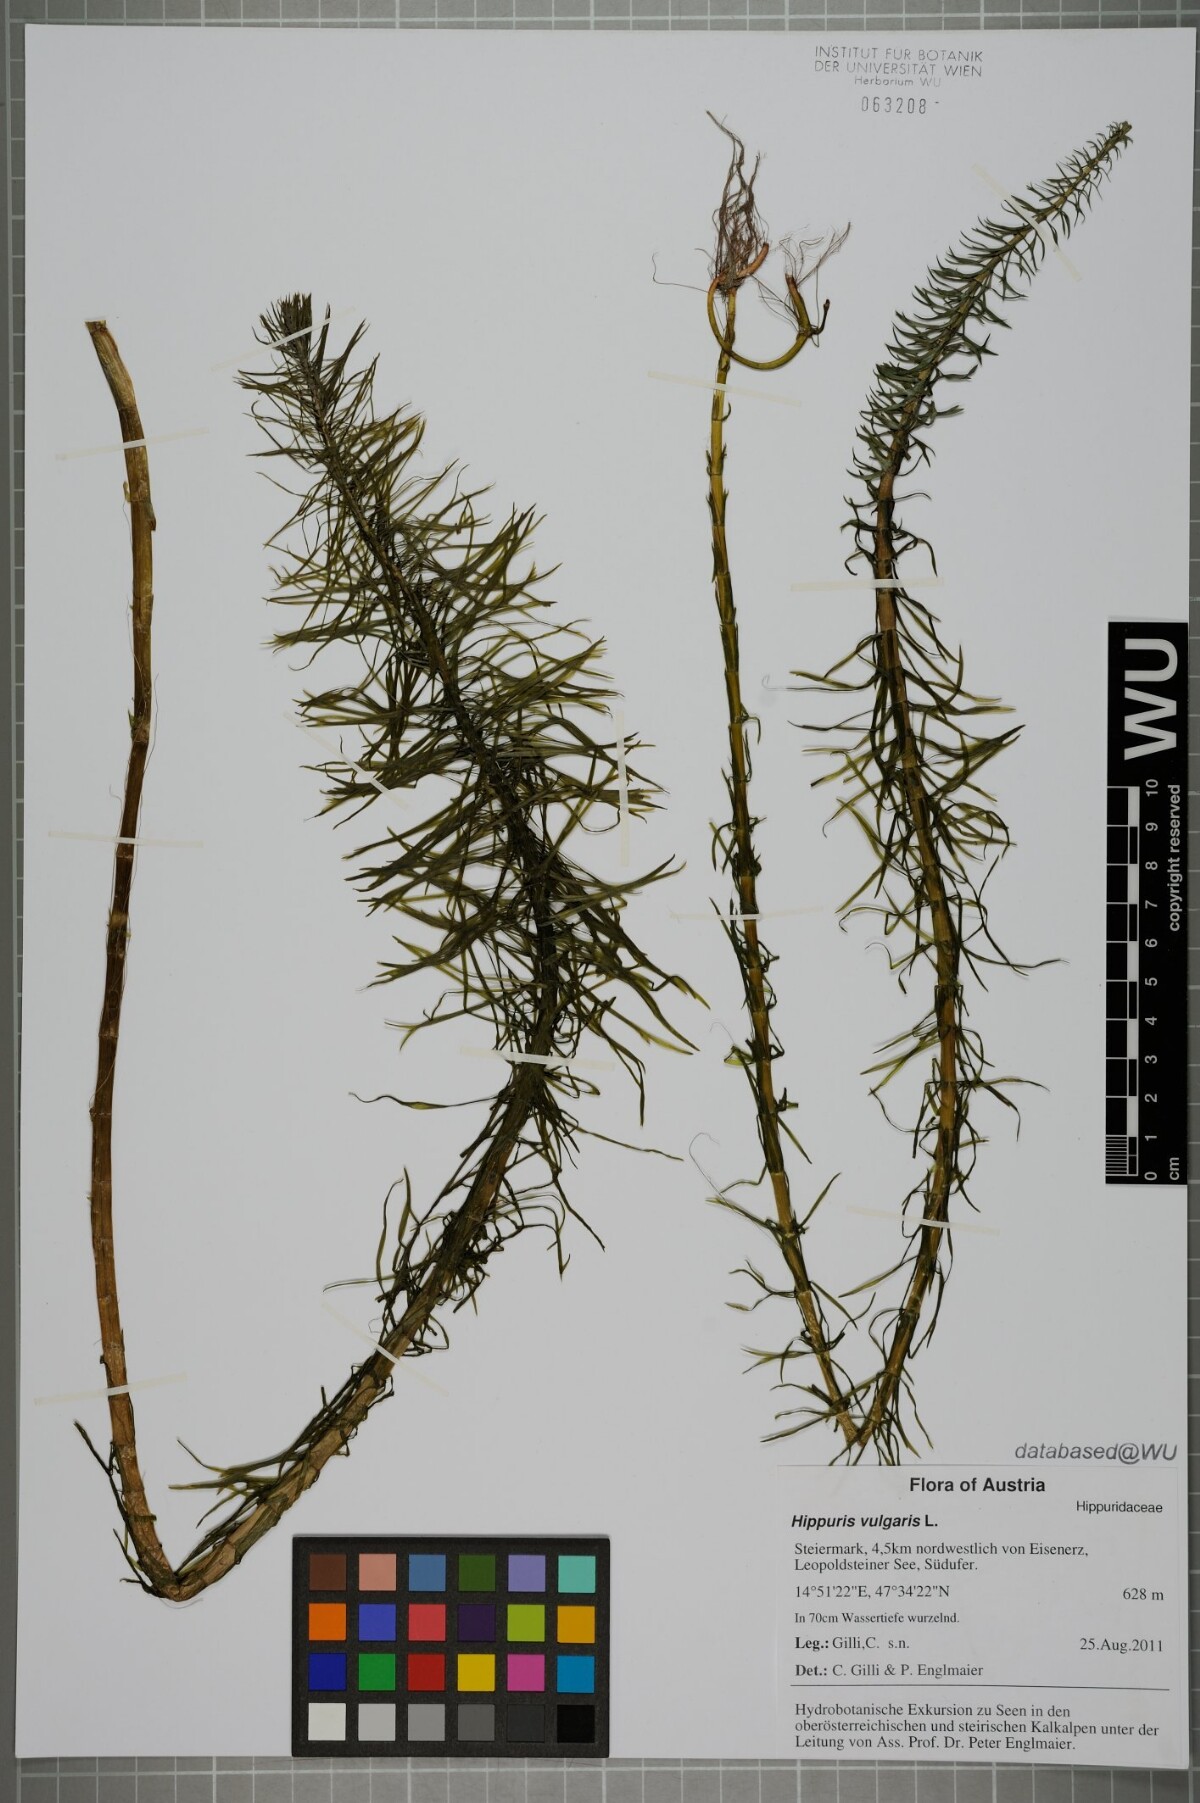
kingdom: Plantae
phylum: Tracheophyta
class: Magnoliopsida
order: Lamiales
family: Plantaginaceae
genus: Hippuris
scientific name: Hippuris vulgaris
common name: Mare's-tail
